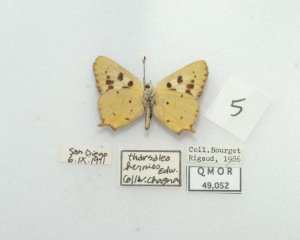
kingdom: Animalia
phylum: Arthropoda
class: Insecta
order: Lepidoptera
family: Lycaenidae
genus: Hermelycaena
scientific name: Hermelycaena hermes
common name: Hermes Copper
